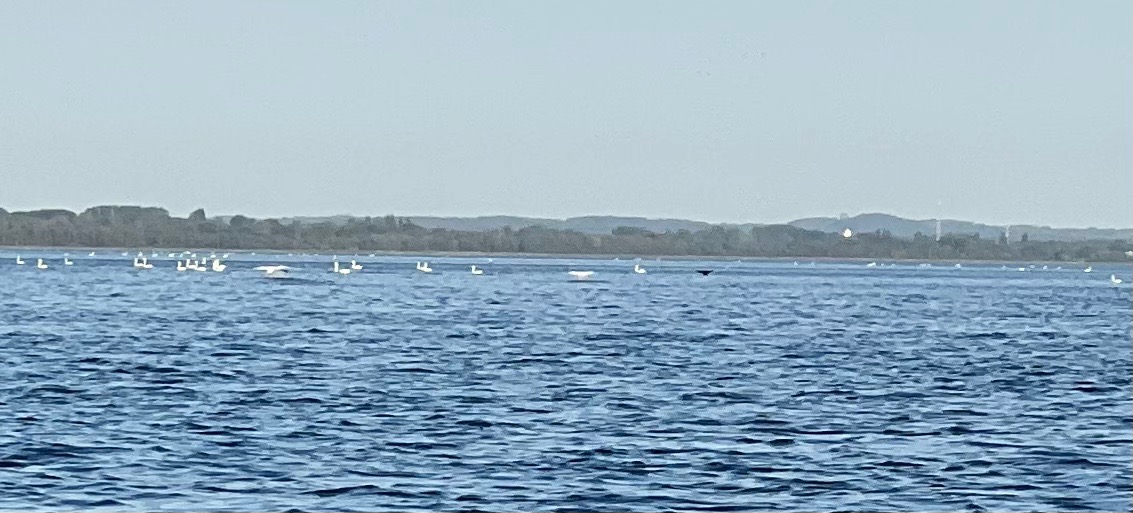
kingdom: Animalia
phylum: Chordata
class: Aves
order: Anseriformes
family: Anatidae
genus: Cygnus
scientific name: Cygnus atratus
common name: Sortsvane
